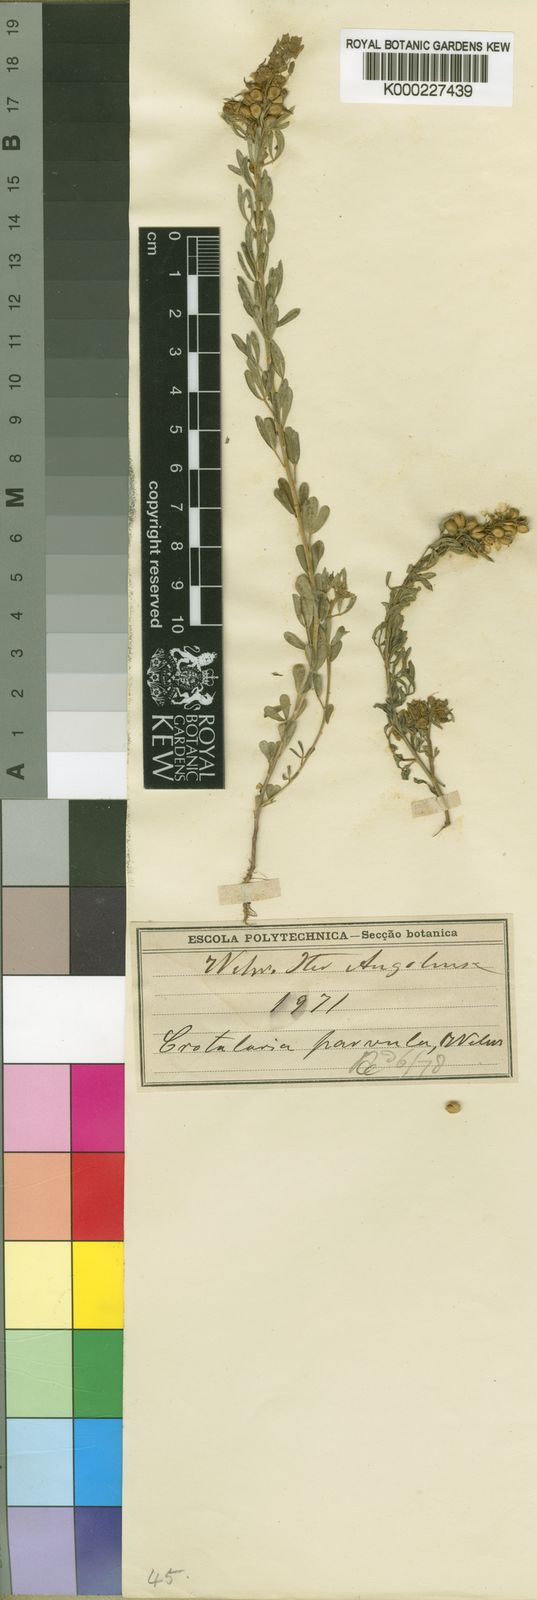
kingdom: Plantae
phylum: Tracheophyta
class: Magnoliopsida
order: Fabales
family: Fabaceae
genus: Crotalaria
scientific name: Crotalaria parvula
